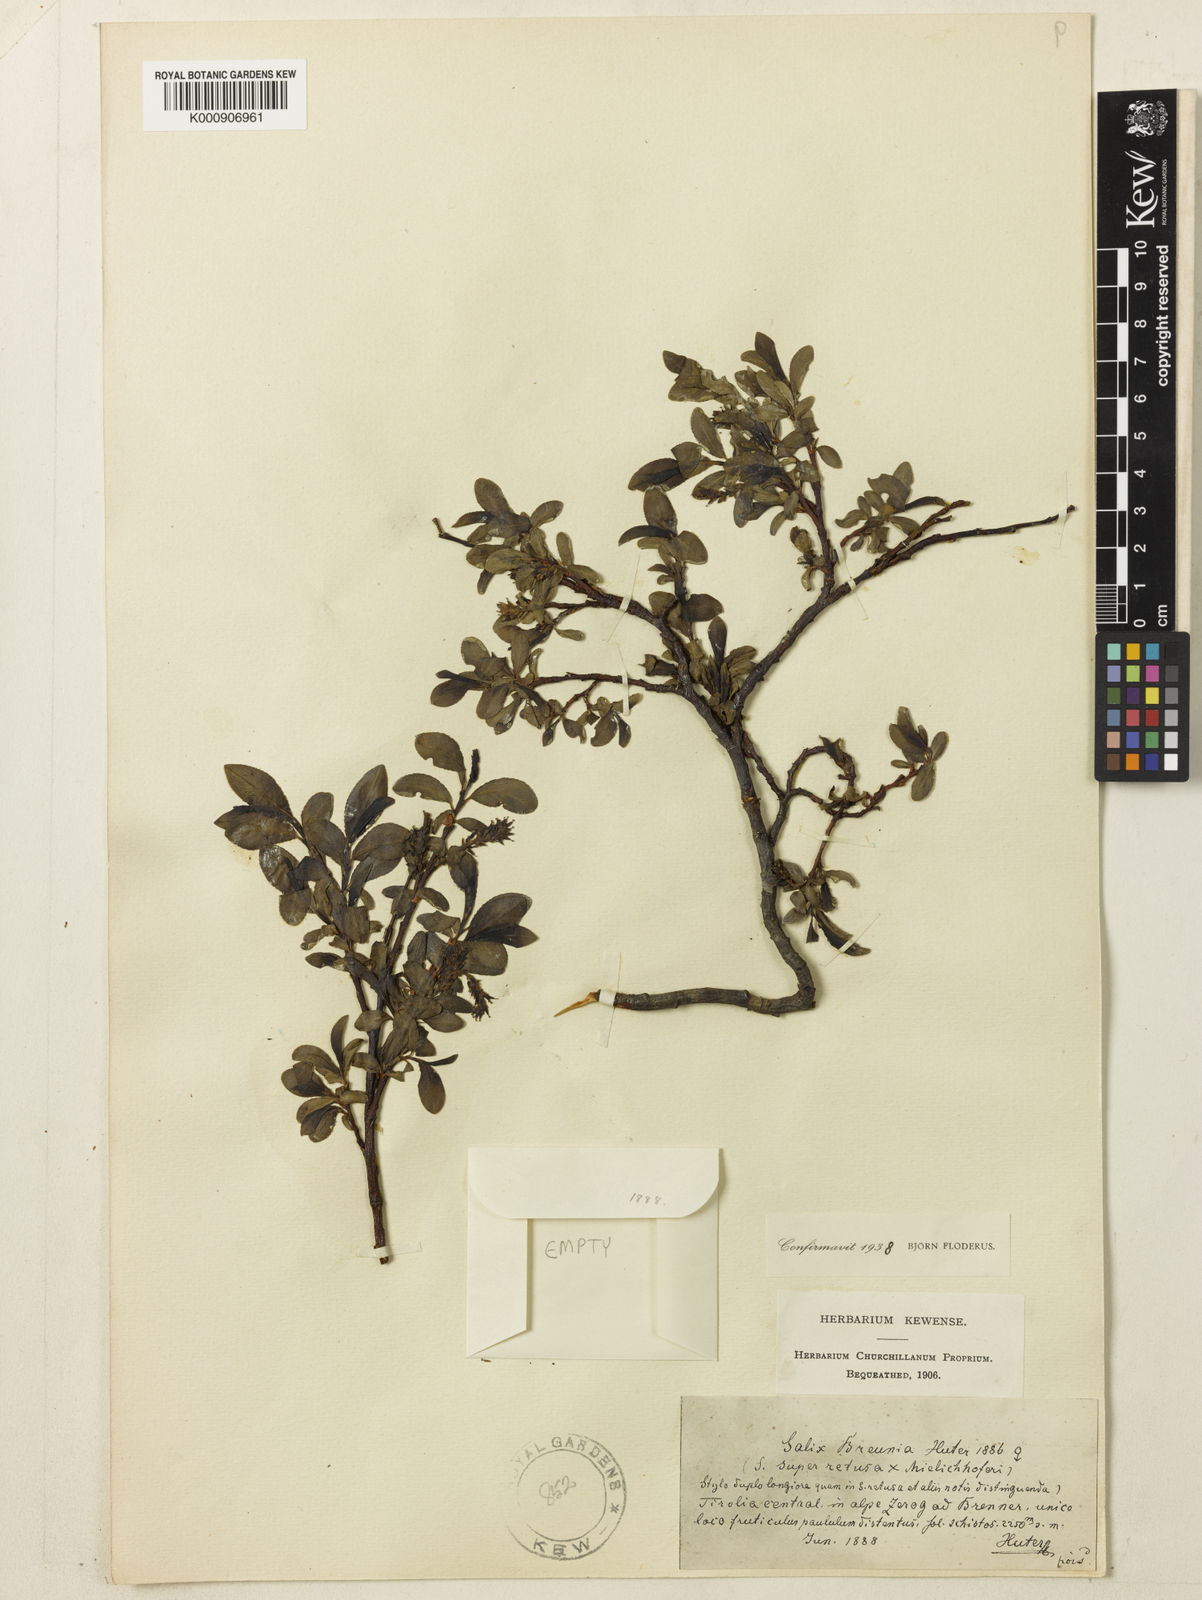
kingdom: Plantae
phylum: Tracheophyta
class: Magnoliopsida
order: Malpighiales
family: Salicaceae
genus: Salix
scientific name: Salix mielichhoferi
